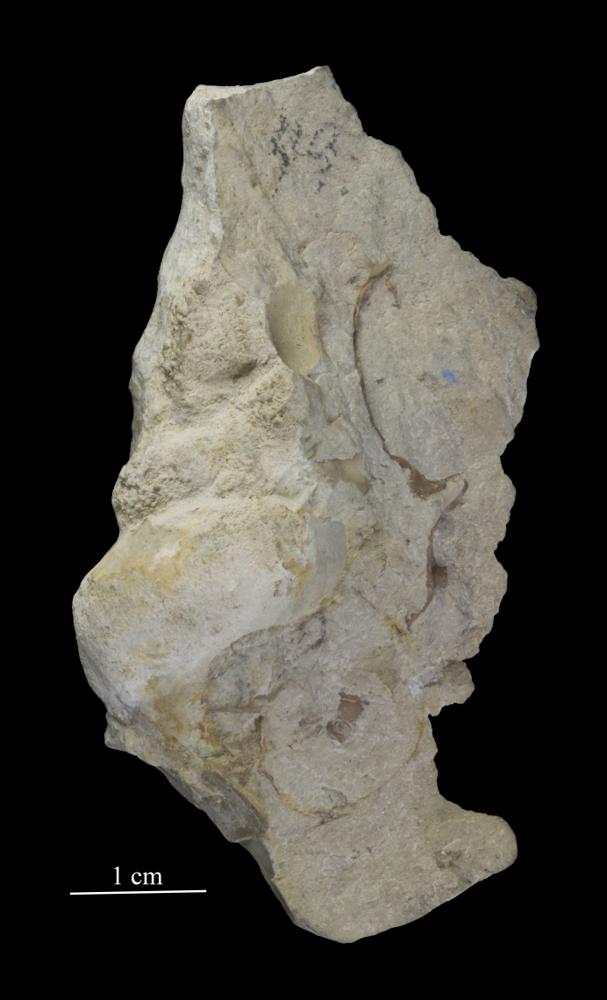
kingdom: Animalia
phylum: Mollusca
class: Gastropoda
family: Lophospiridae
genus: Loxoplocus
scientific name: Loxoplocus Turbo silurica
